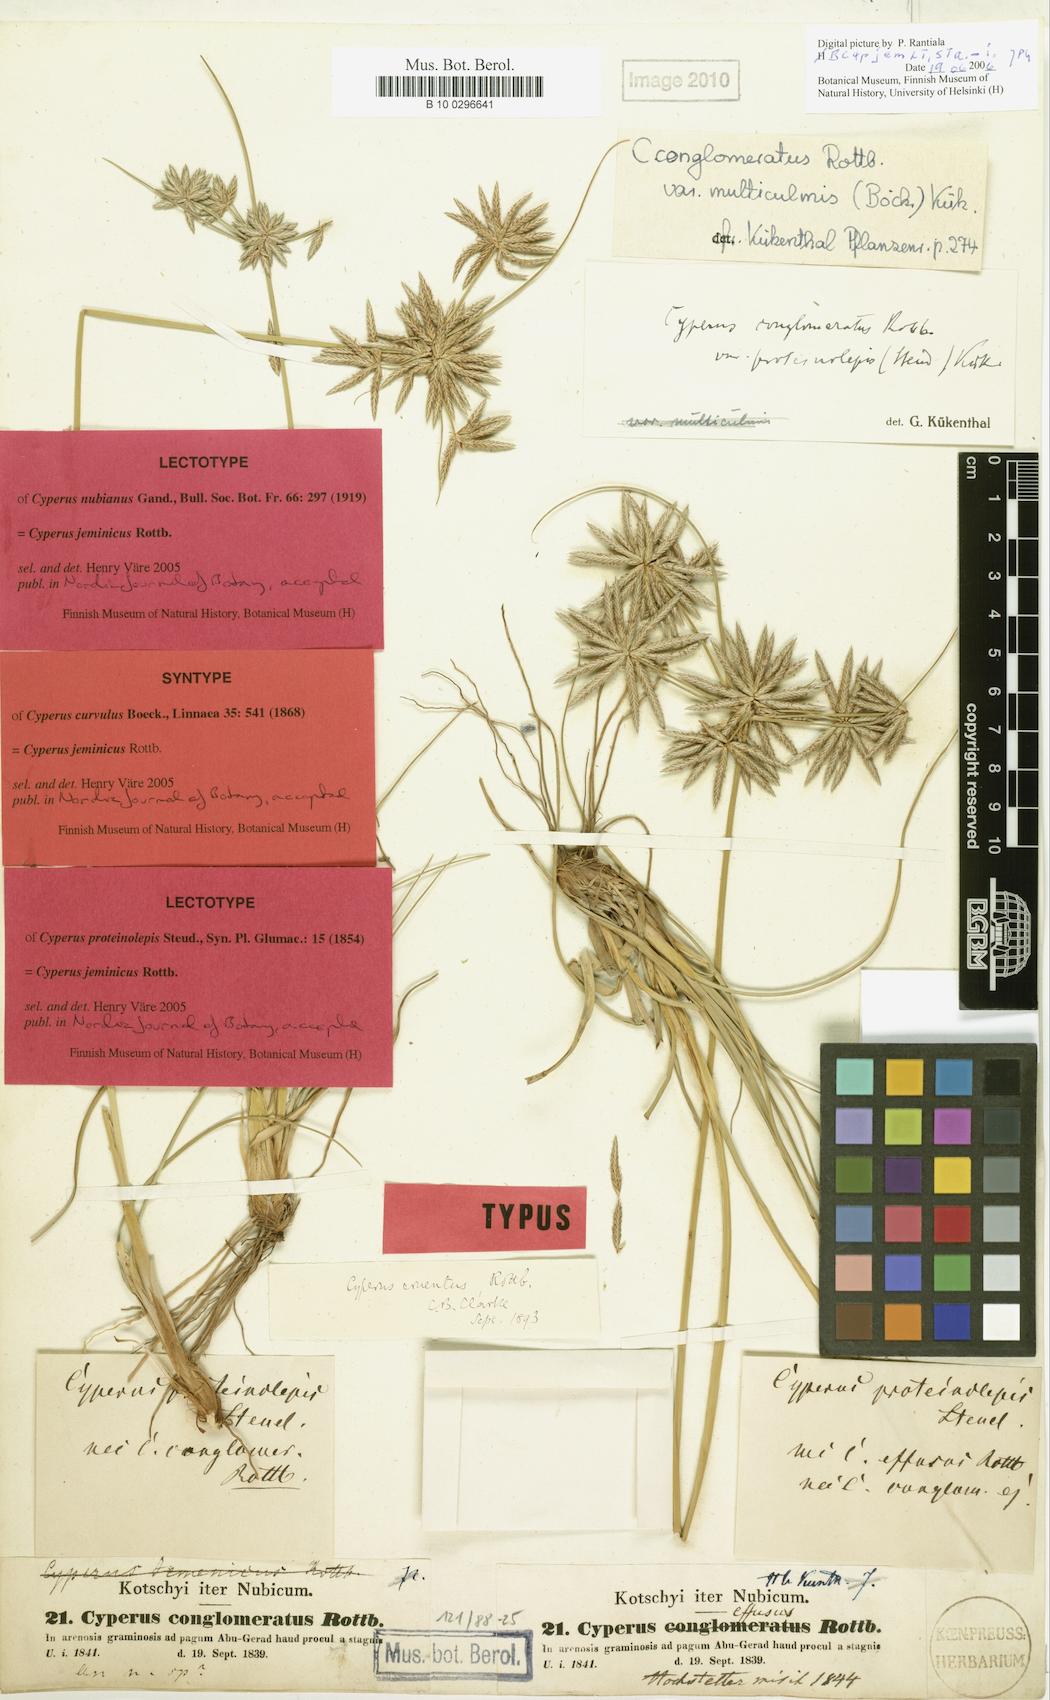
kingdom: Plantae
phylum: Tracheophyta
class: Liliopsida
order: Poales
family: Cyperaceae
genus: Cyperus
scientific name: Cyperus jeminicus
